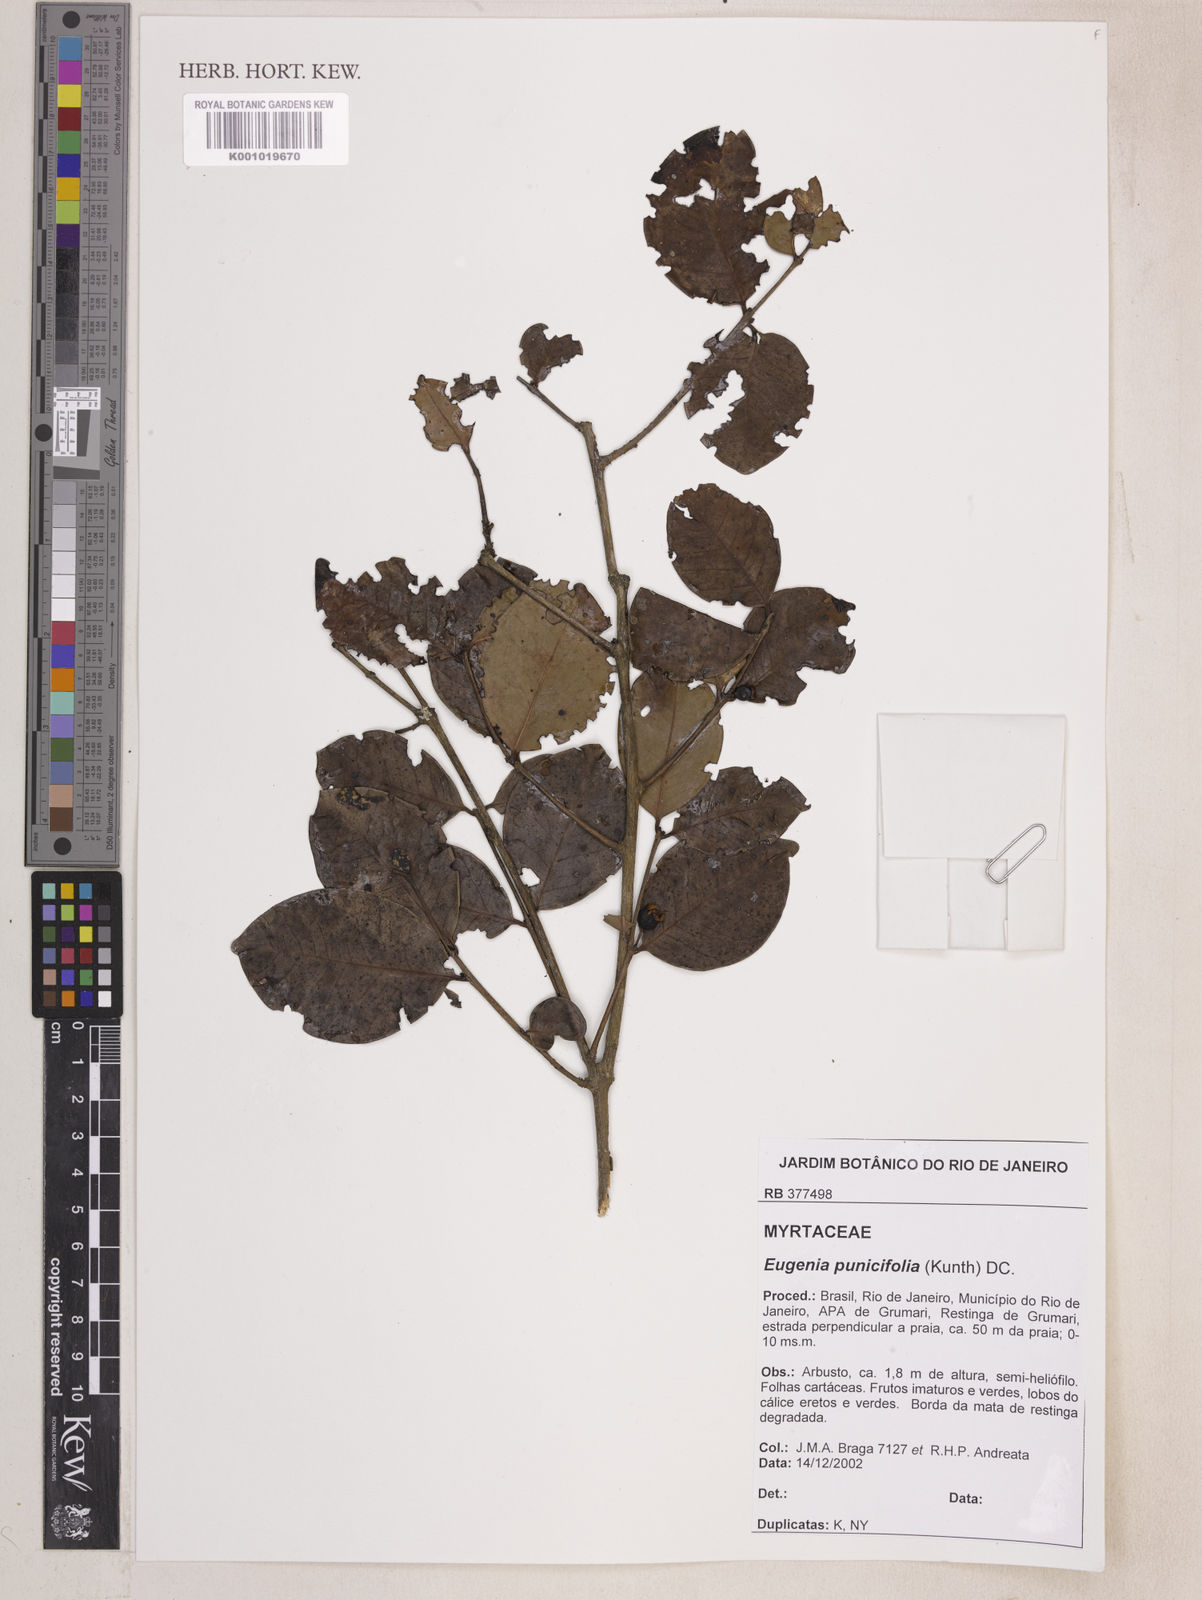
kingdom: Plantae
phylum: Tracheophyta
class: Magnoliopsida
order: Myrtales
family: Myrtaceae
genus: Eugenia
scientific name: Eugenia punicifolia
